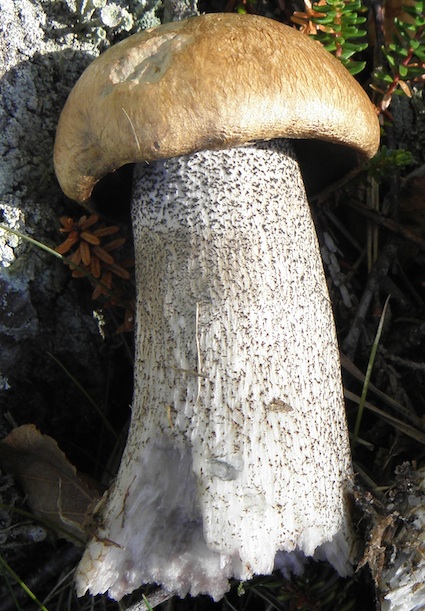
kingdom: Fungi
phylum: Basidiomycota
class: Agaricomycetes
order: Boletales
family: Boletaceae
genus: Leccinum
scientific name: Leccinum versipelle
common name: orange skælrørhat
